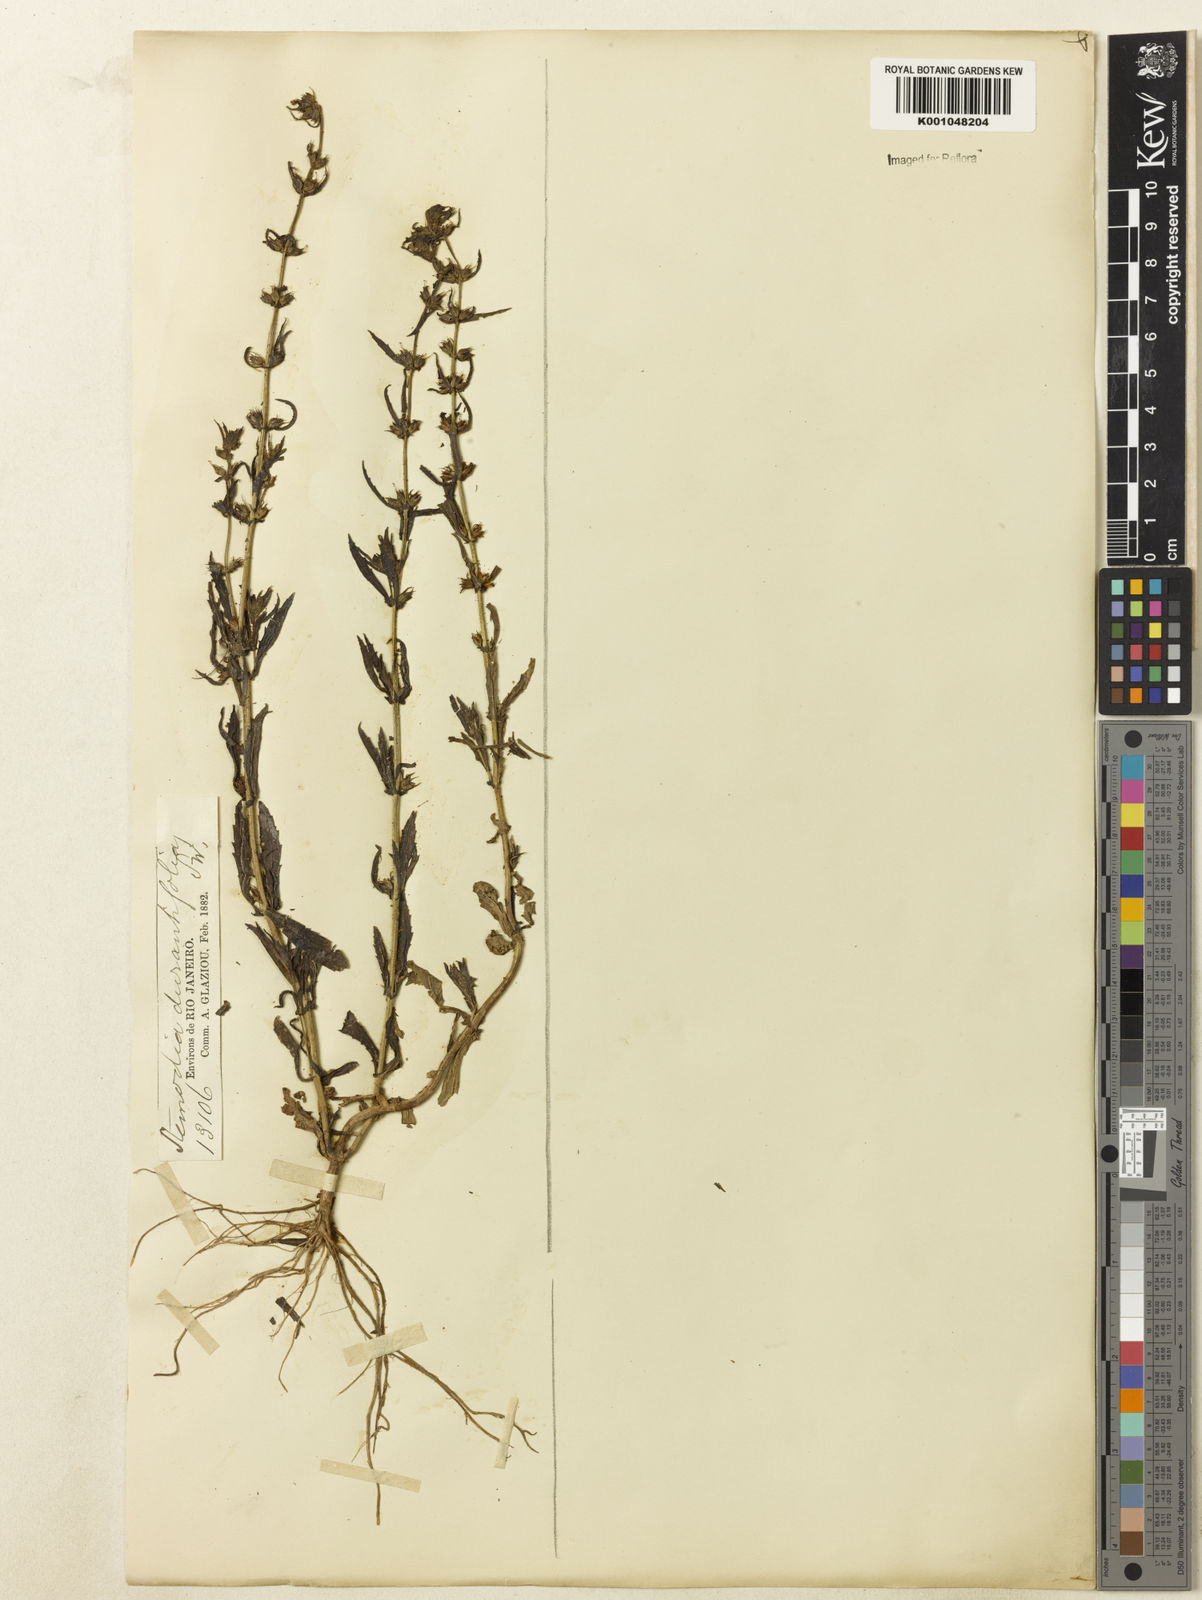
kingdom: Plantae
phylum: Tracheophyta
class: Magnoliopsida
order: Lamiales
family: Plantaginaceae
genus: Stemodia
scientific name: Stemodia durantifolia
